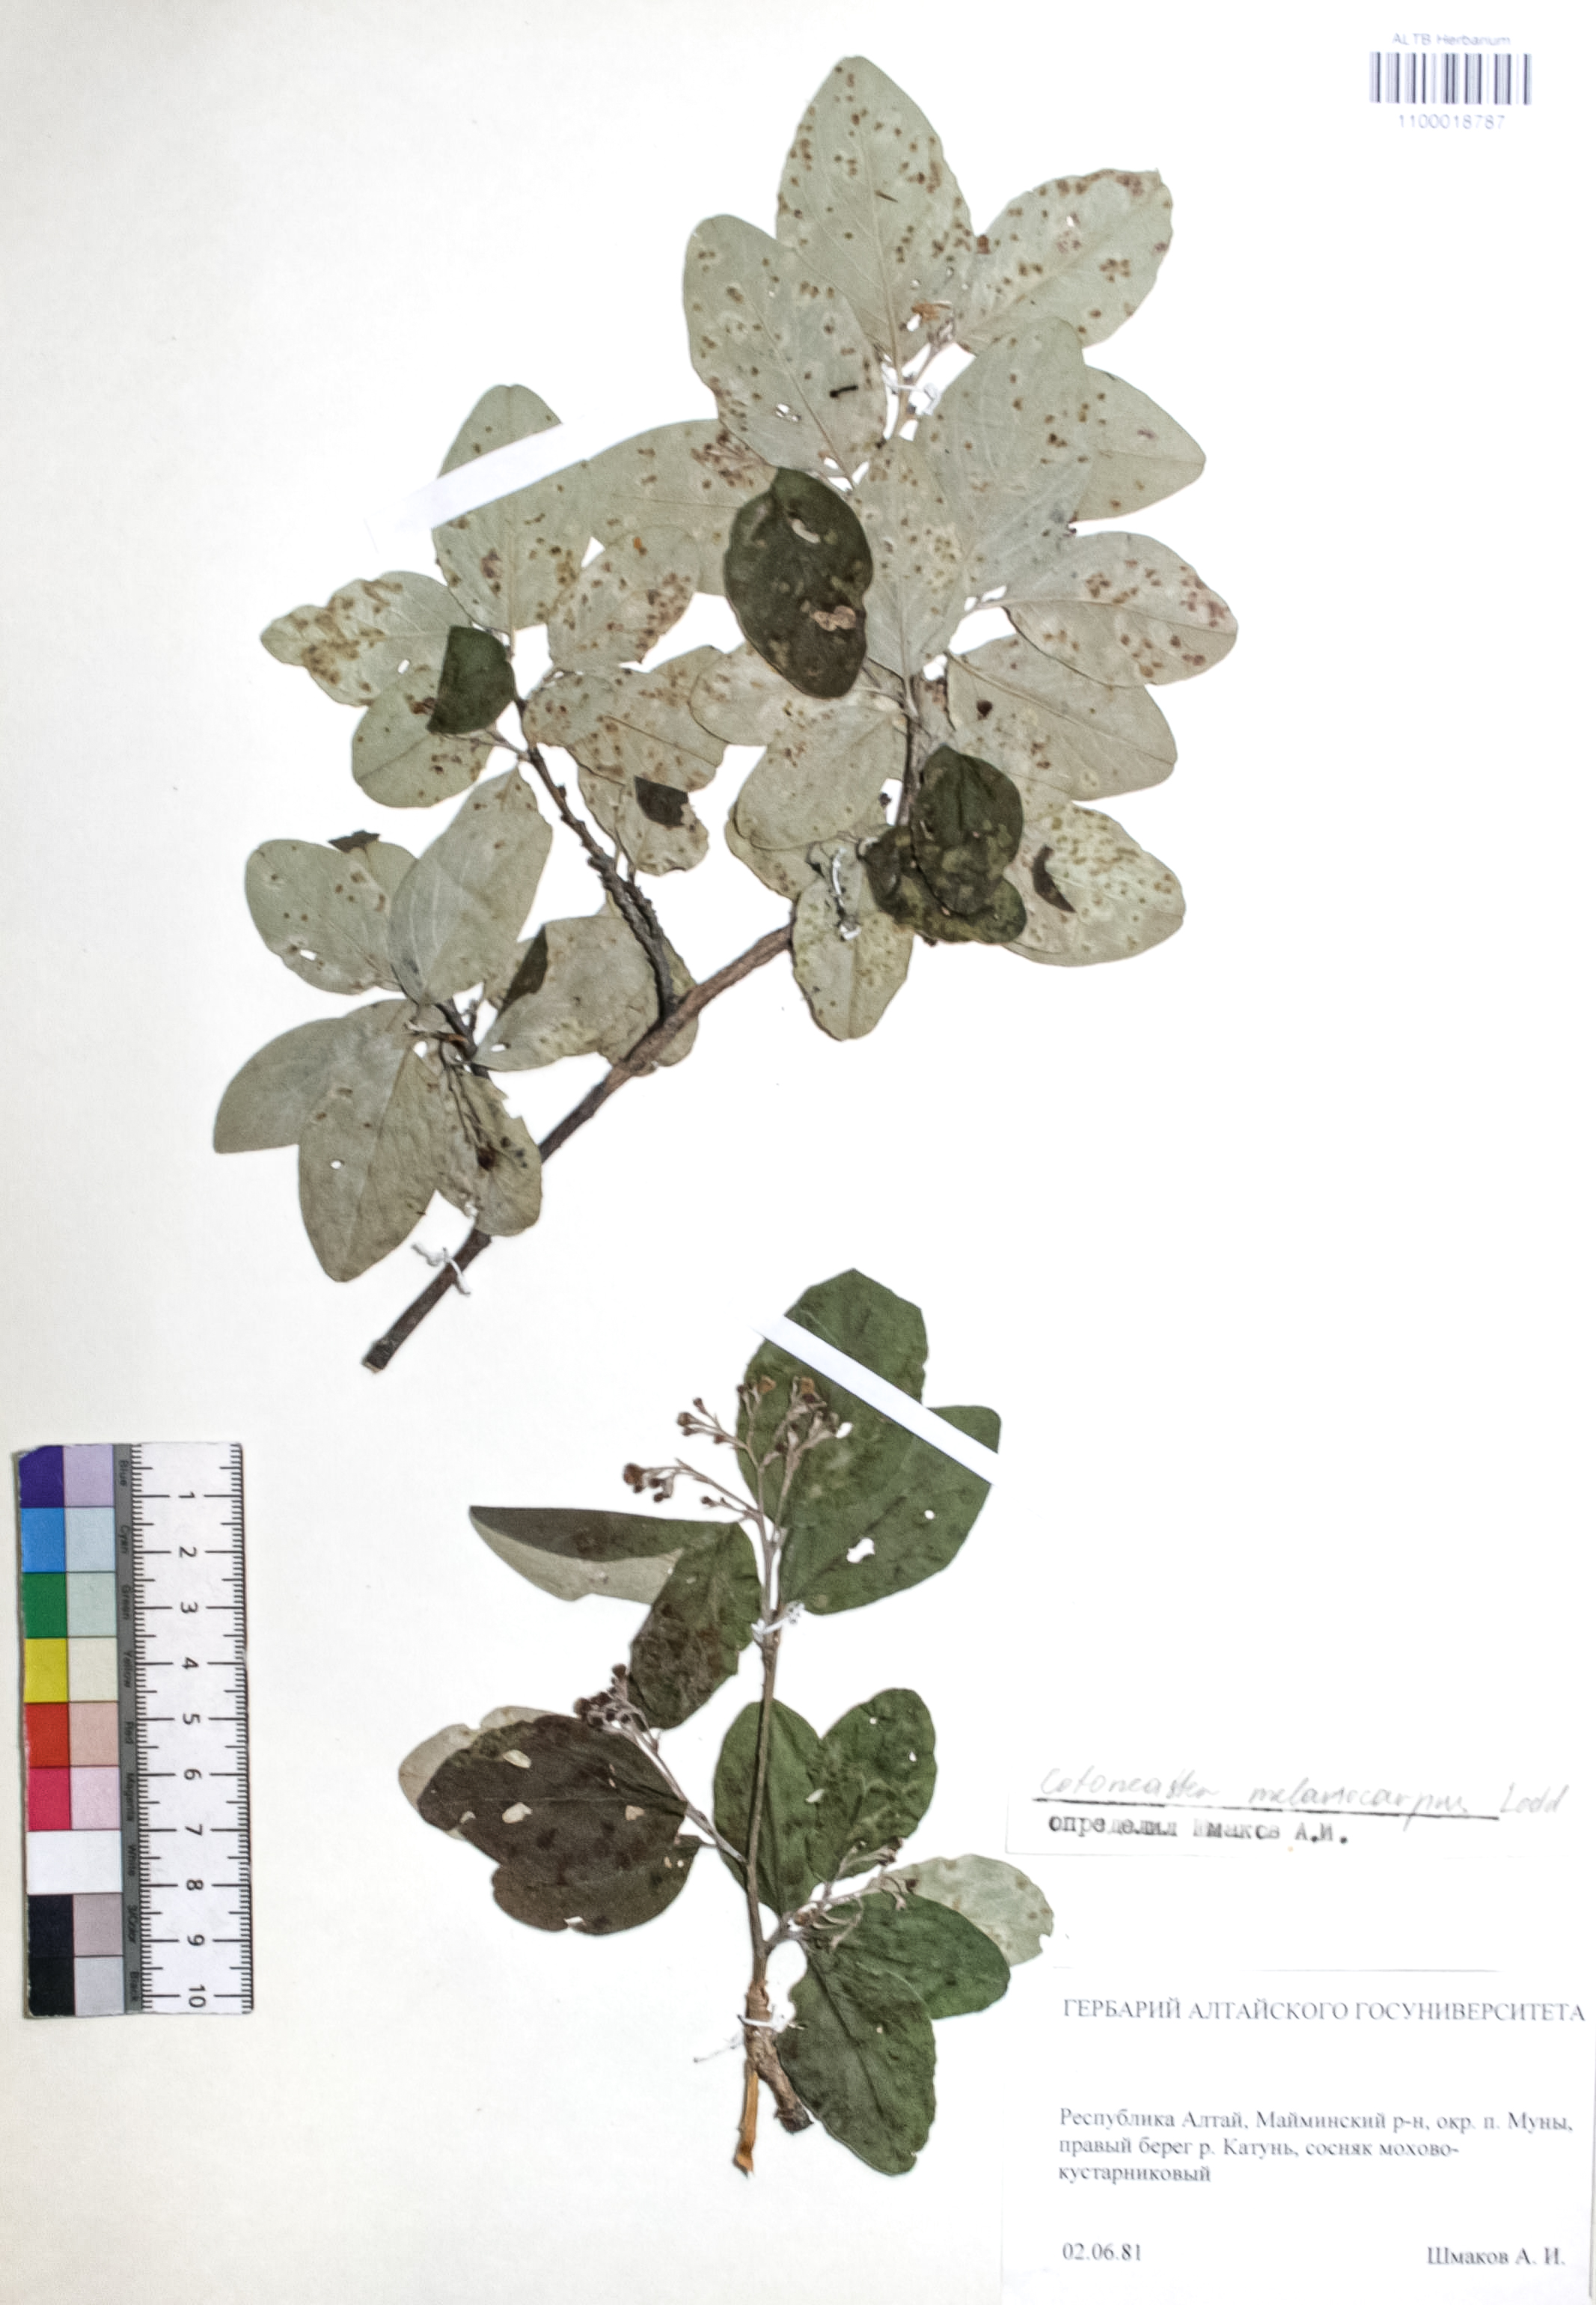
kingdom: Plantae
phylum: Tracheophyta
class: Magnoliopsida
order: Rosales
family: Rosaceae
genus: Cotoneaster
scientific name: Cotoneaster niger
